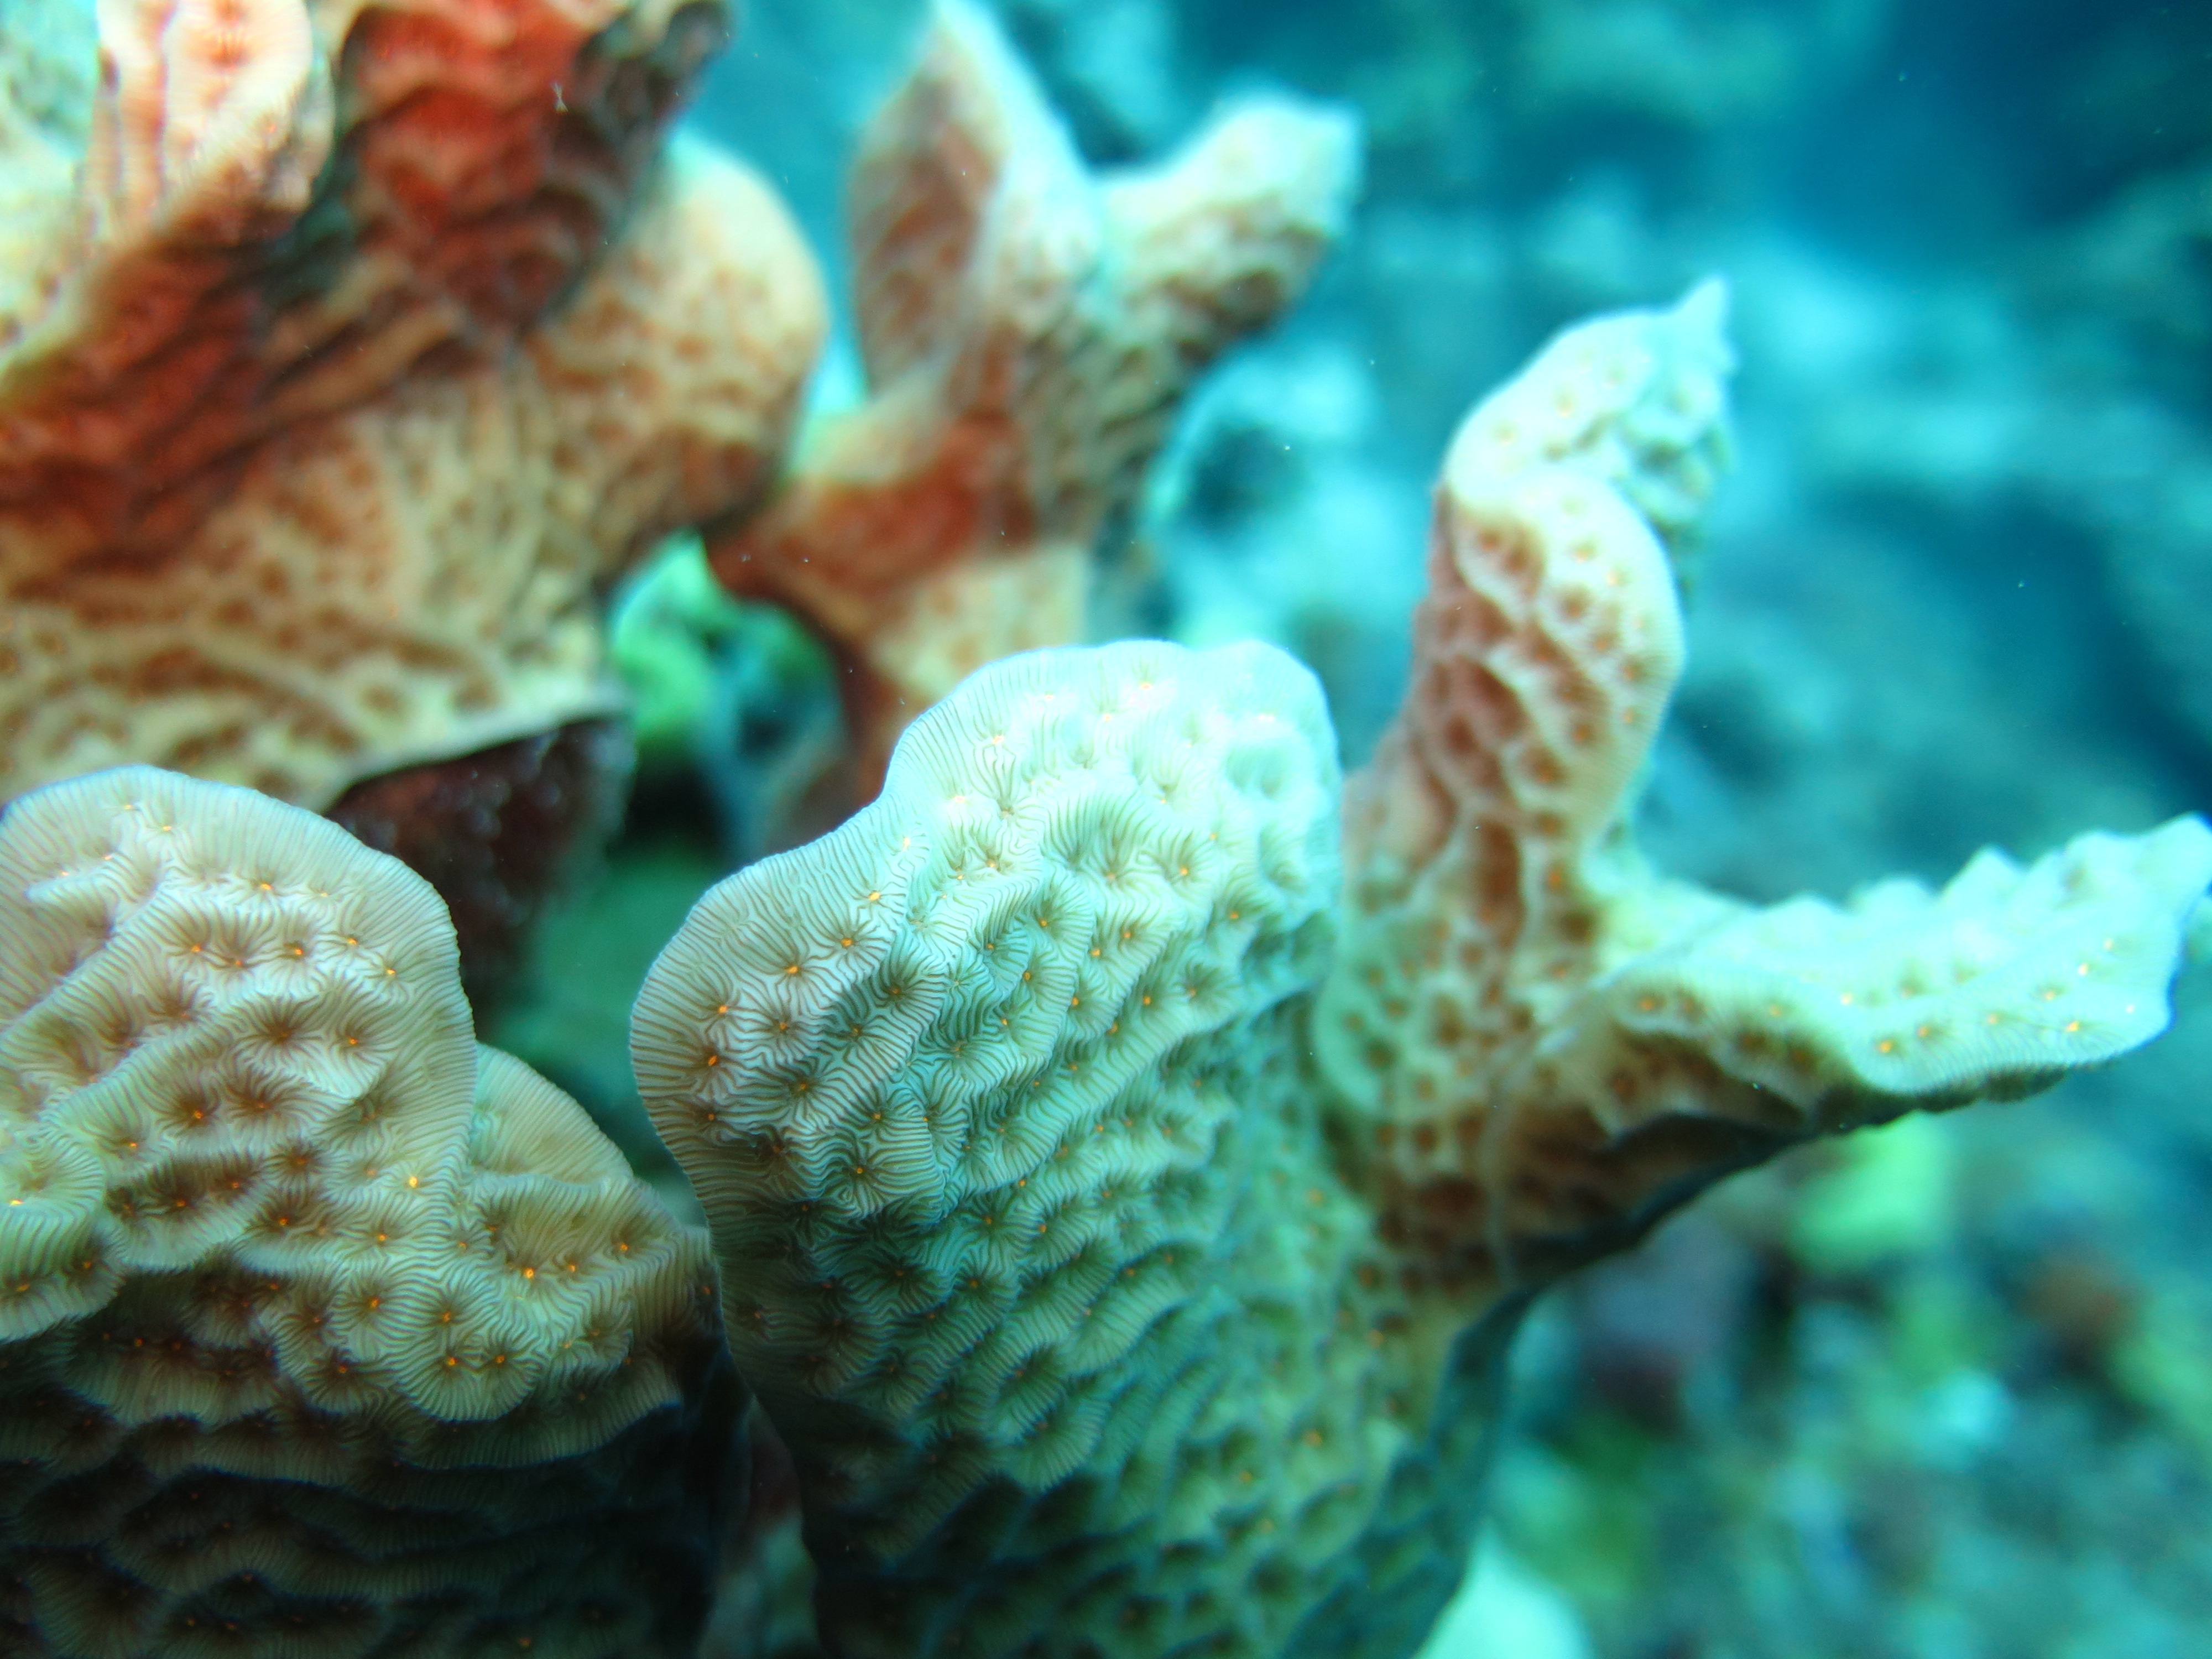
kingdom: Animalia
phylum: Cnidaria
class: Anthozoa
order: Scleractinia
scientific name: Scleractinia
